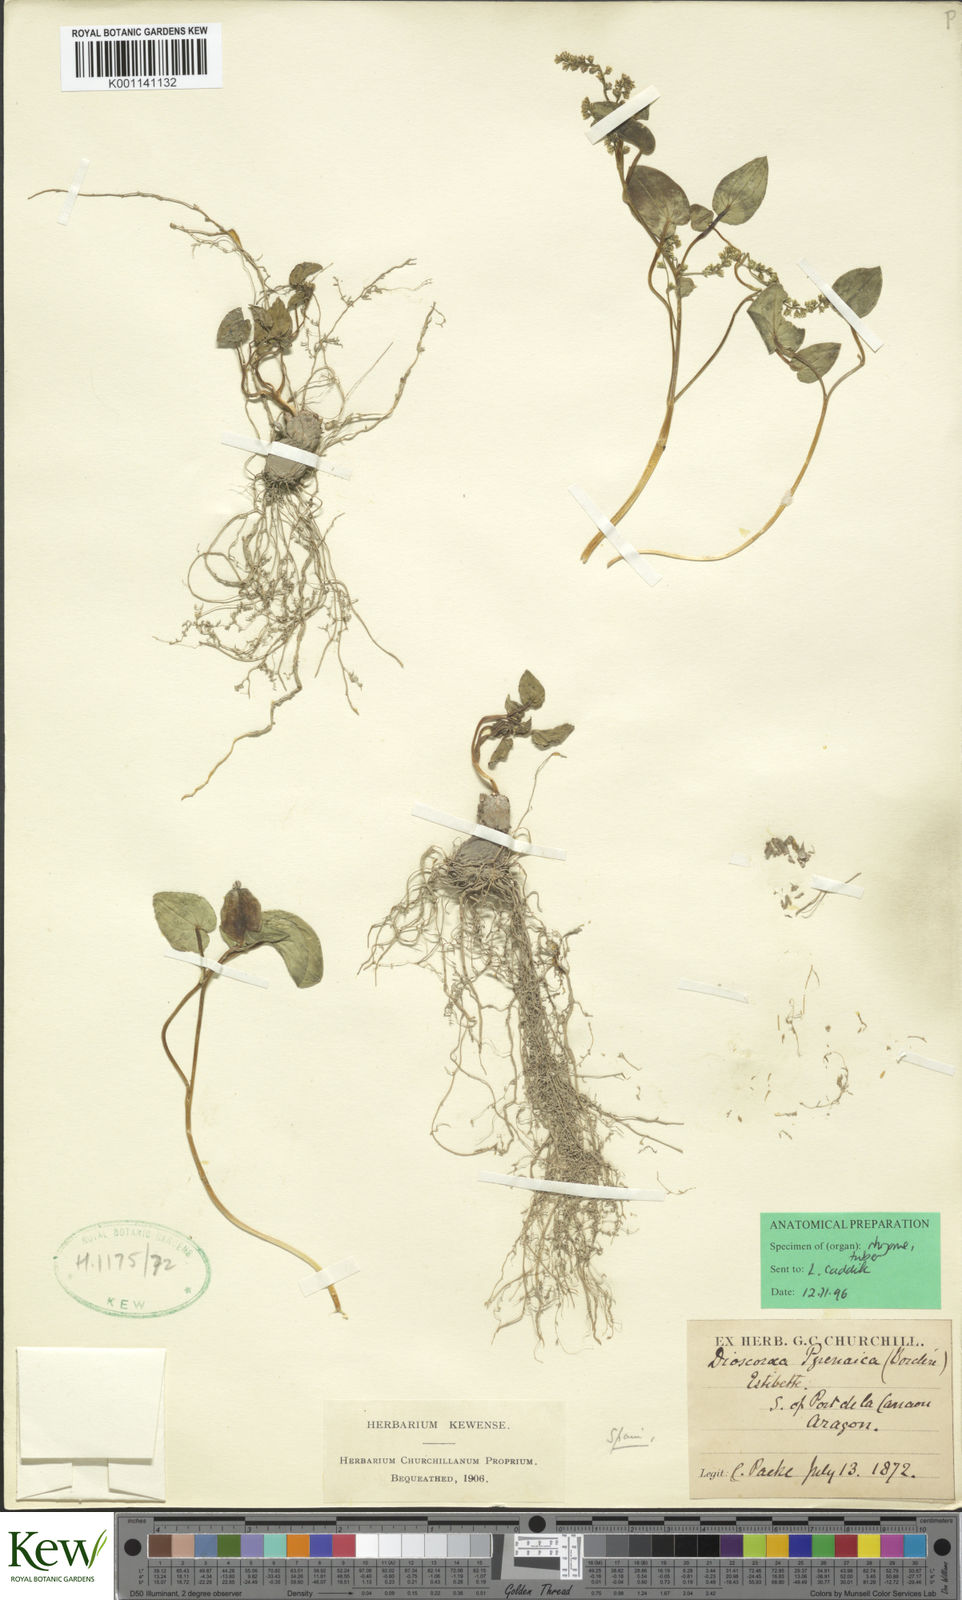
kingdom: Plantae
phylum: Tracheophyta
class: Liliopsida
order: Dioscoreales
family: Dioscoreaceae
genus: Dioscorea
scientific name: Dioscorea
